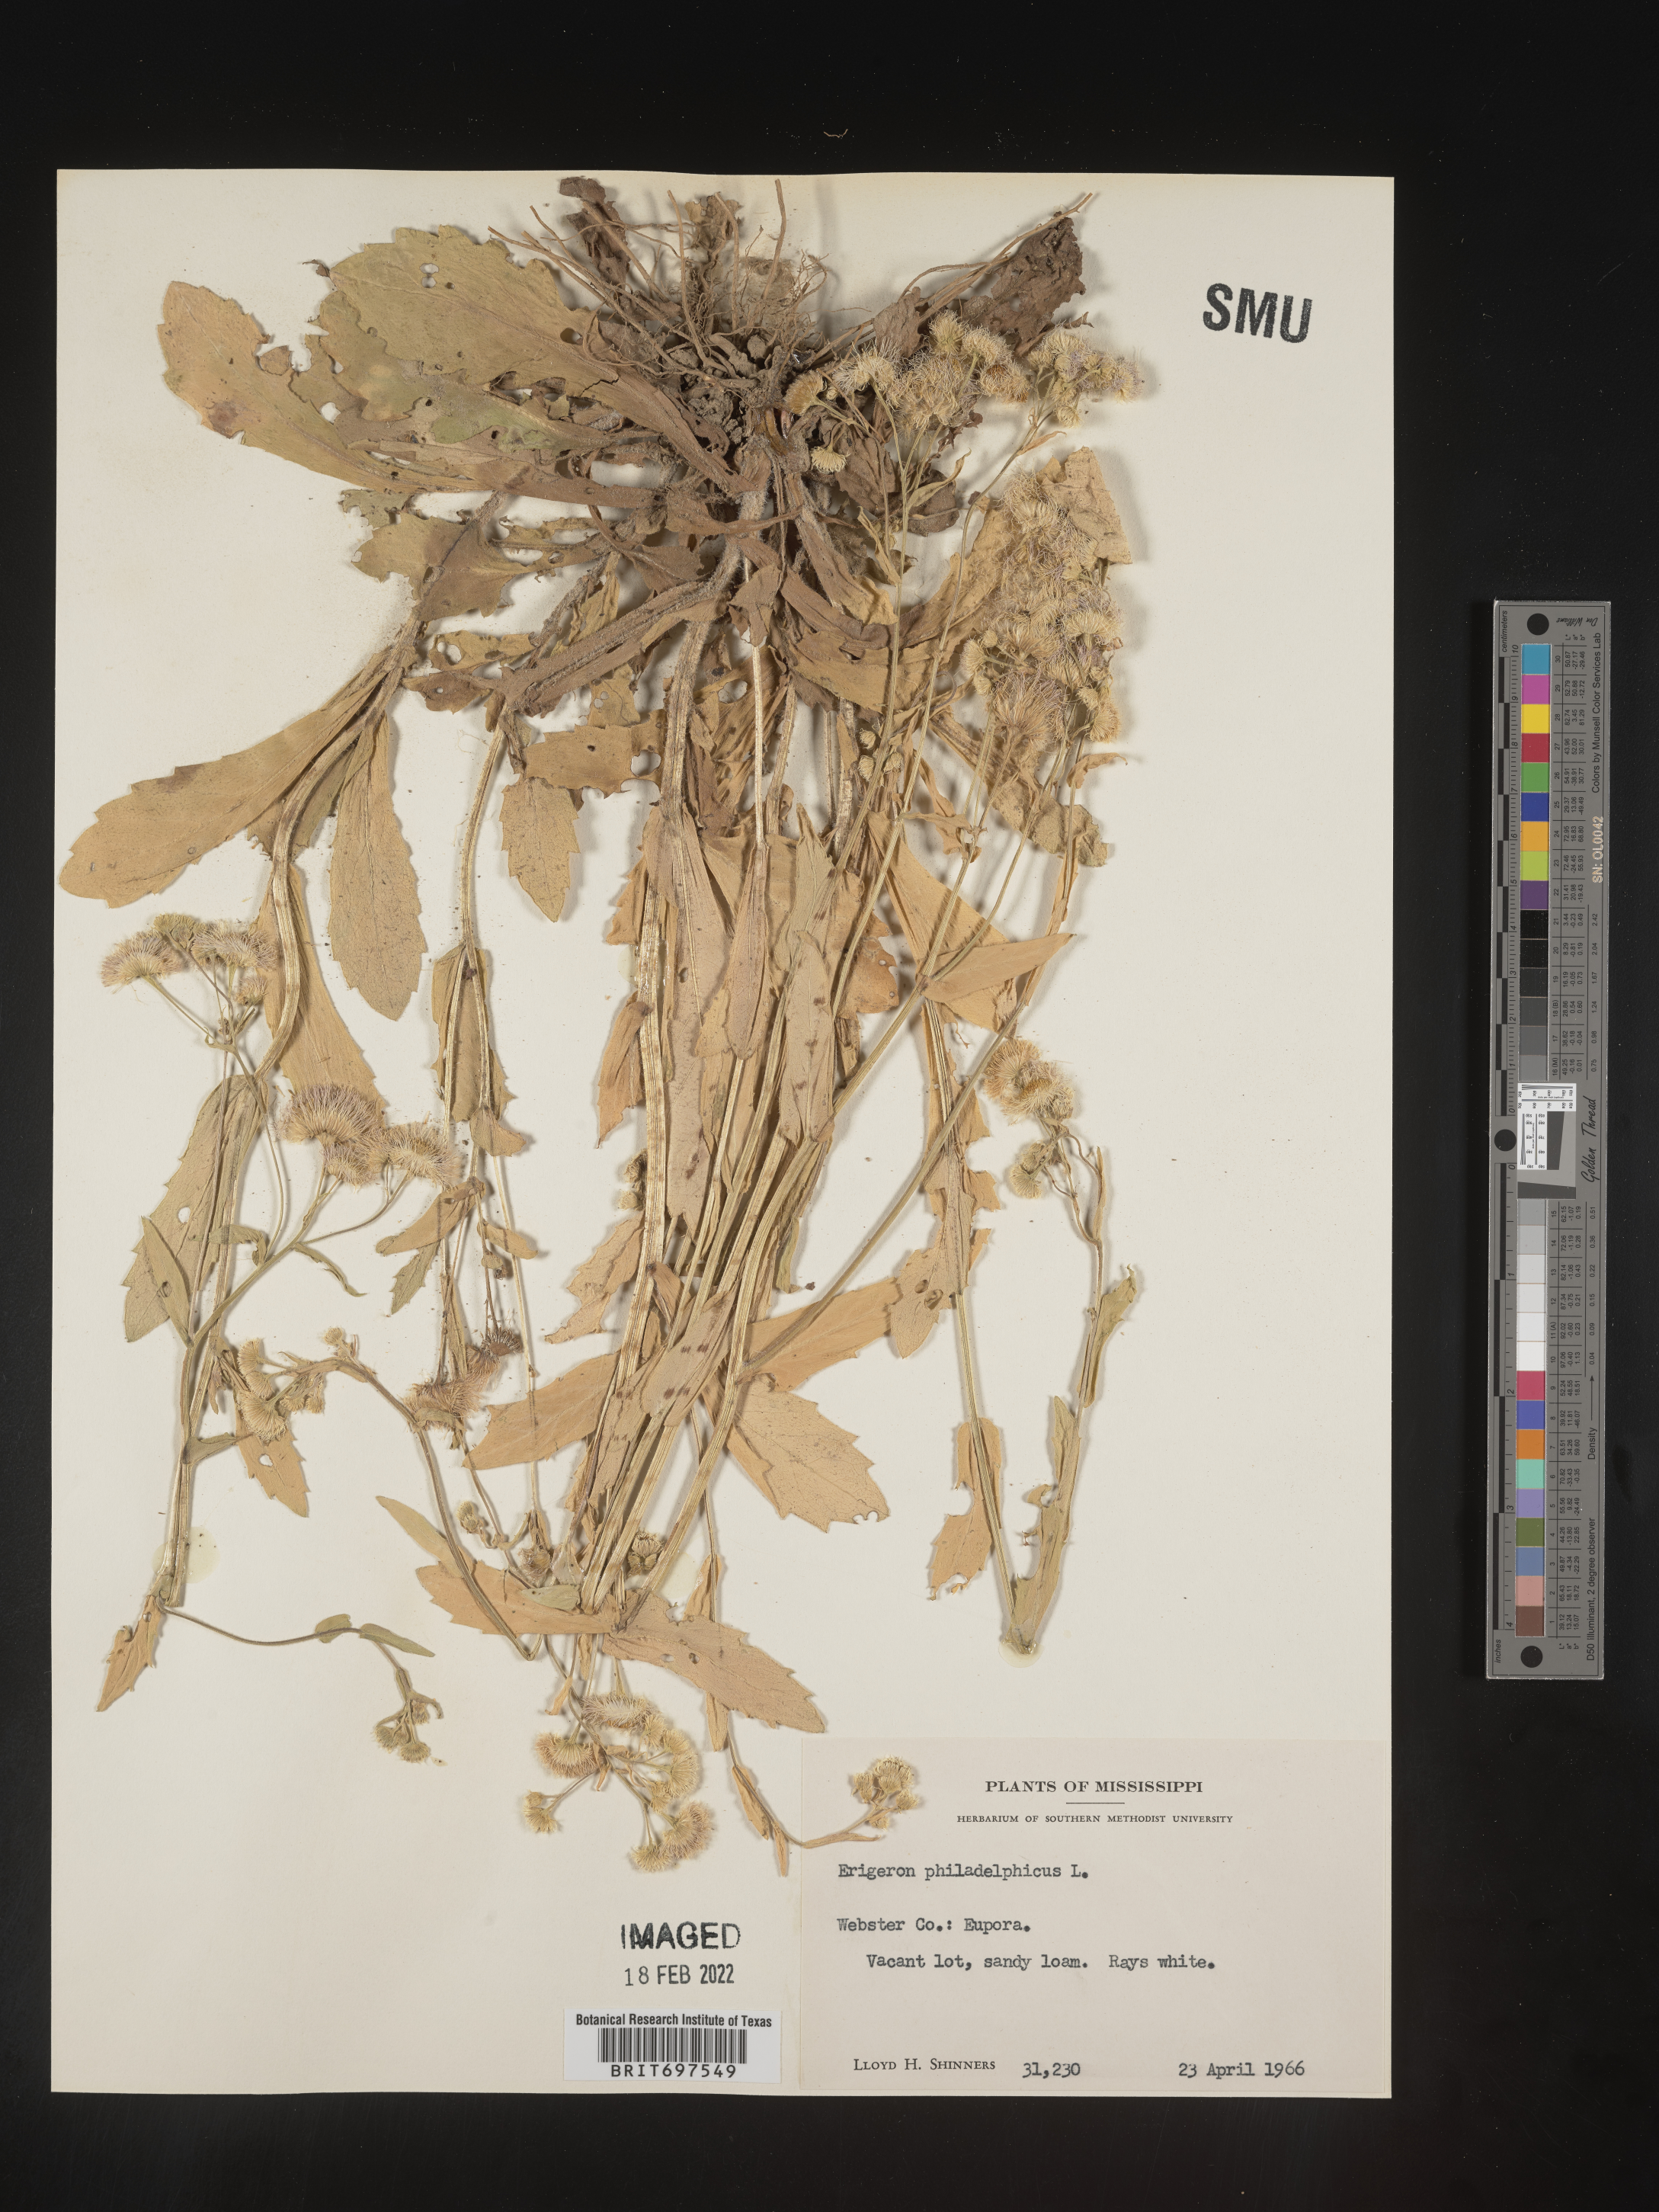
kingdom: Plantae
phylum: Tracheophyta
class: Magnoliopsida
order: Asterales
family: Asteraceae
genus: Erigeron
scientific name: Erigeron philadelphicus
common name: Robin's-plantain
